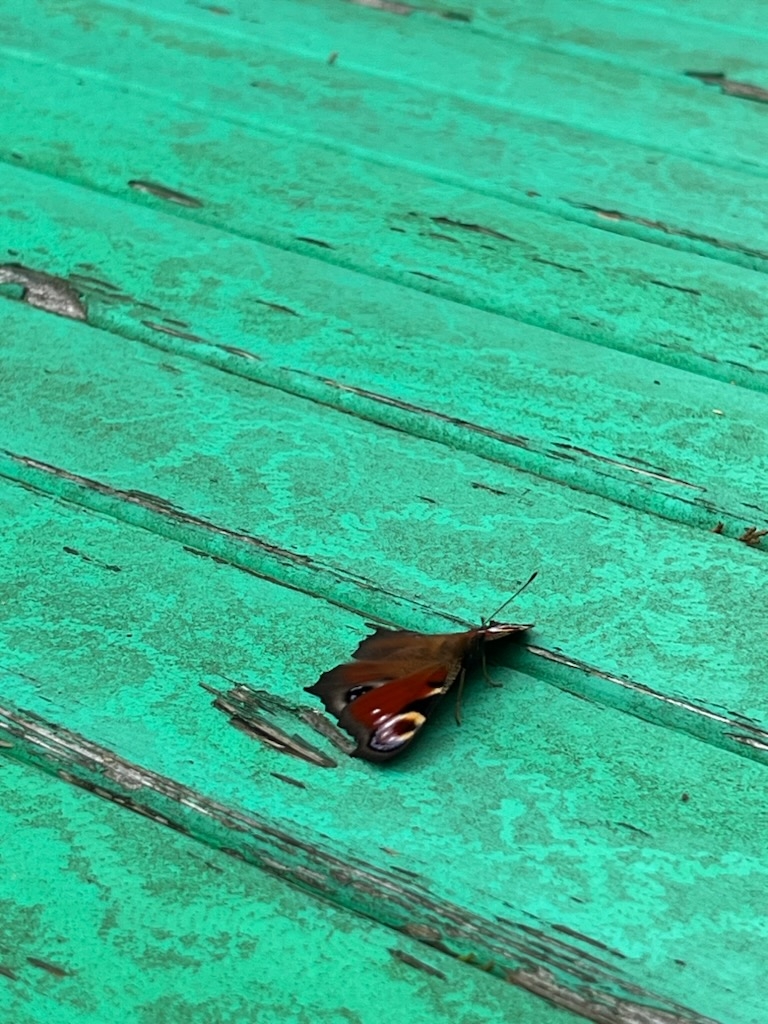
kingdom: Animalia
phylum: Arthropoda
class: Insecta
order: Lepidoptera
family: Nymphalidae
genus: Aglais
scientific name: Aglais io
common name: Dagpåfugleøje
